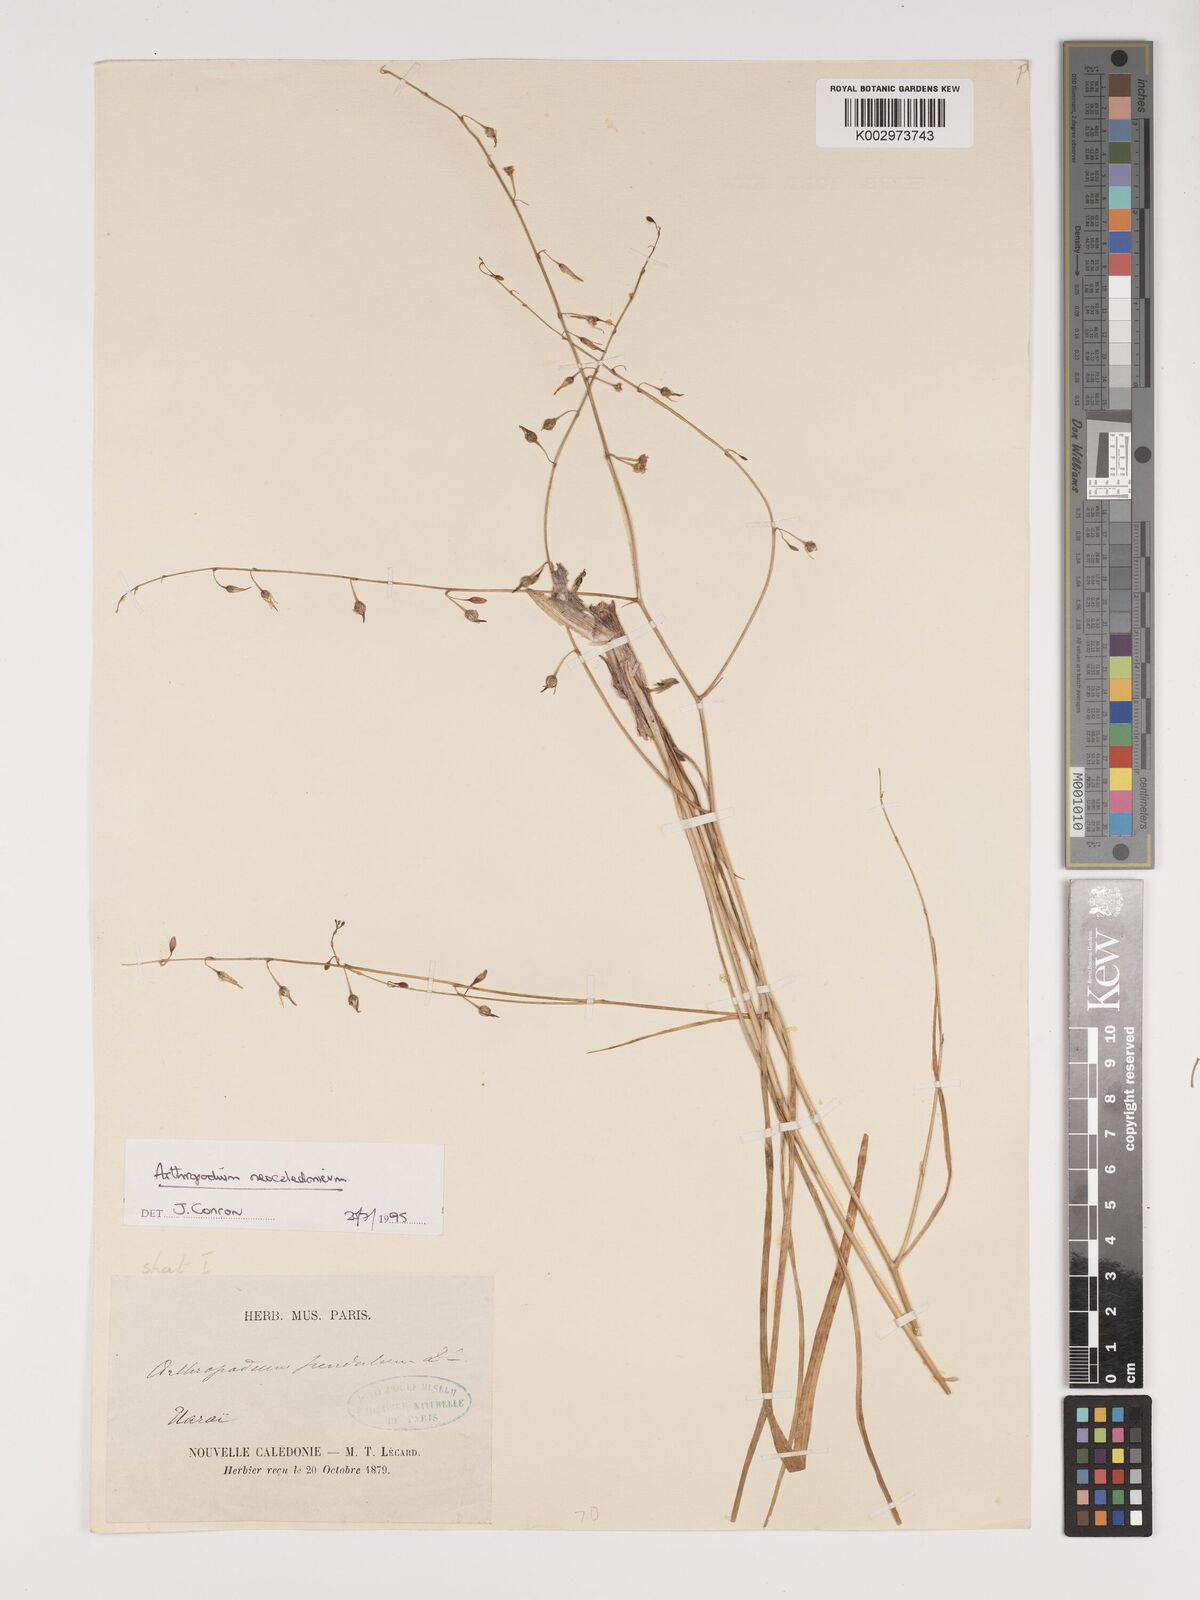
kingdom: Plantae
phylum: Tracheophyta
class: Liliopsida
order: Asparagales
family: Asparagaceae
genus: Arthropodium
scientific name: Arthropodium neocaledonicum
